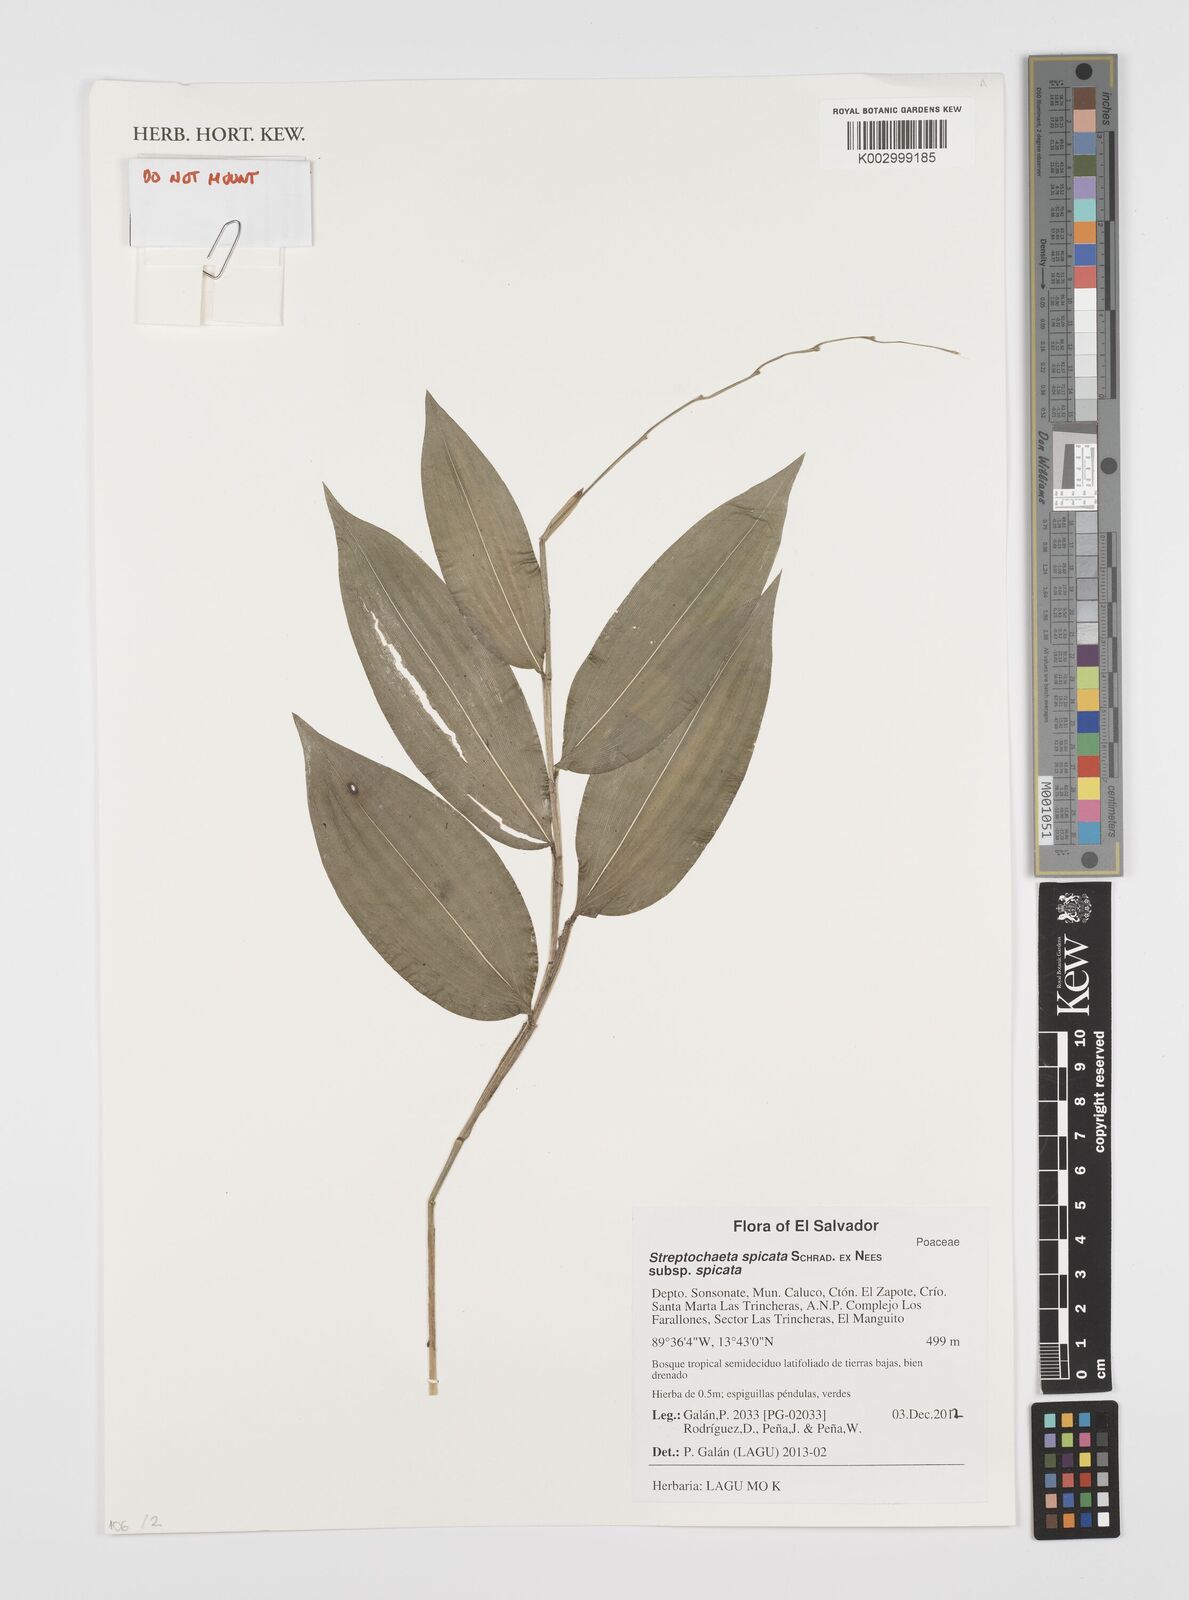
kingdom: Plantae
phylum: Tracheophyta
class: Liliopsida
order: Poales
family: Poaceae
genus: Streptochaeta
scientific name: Streptochaeta spicata
